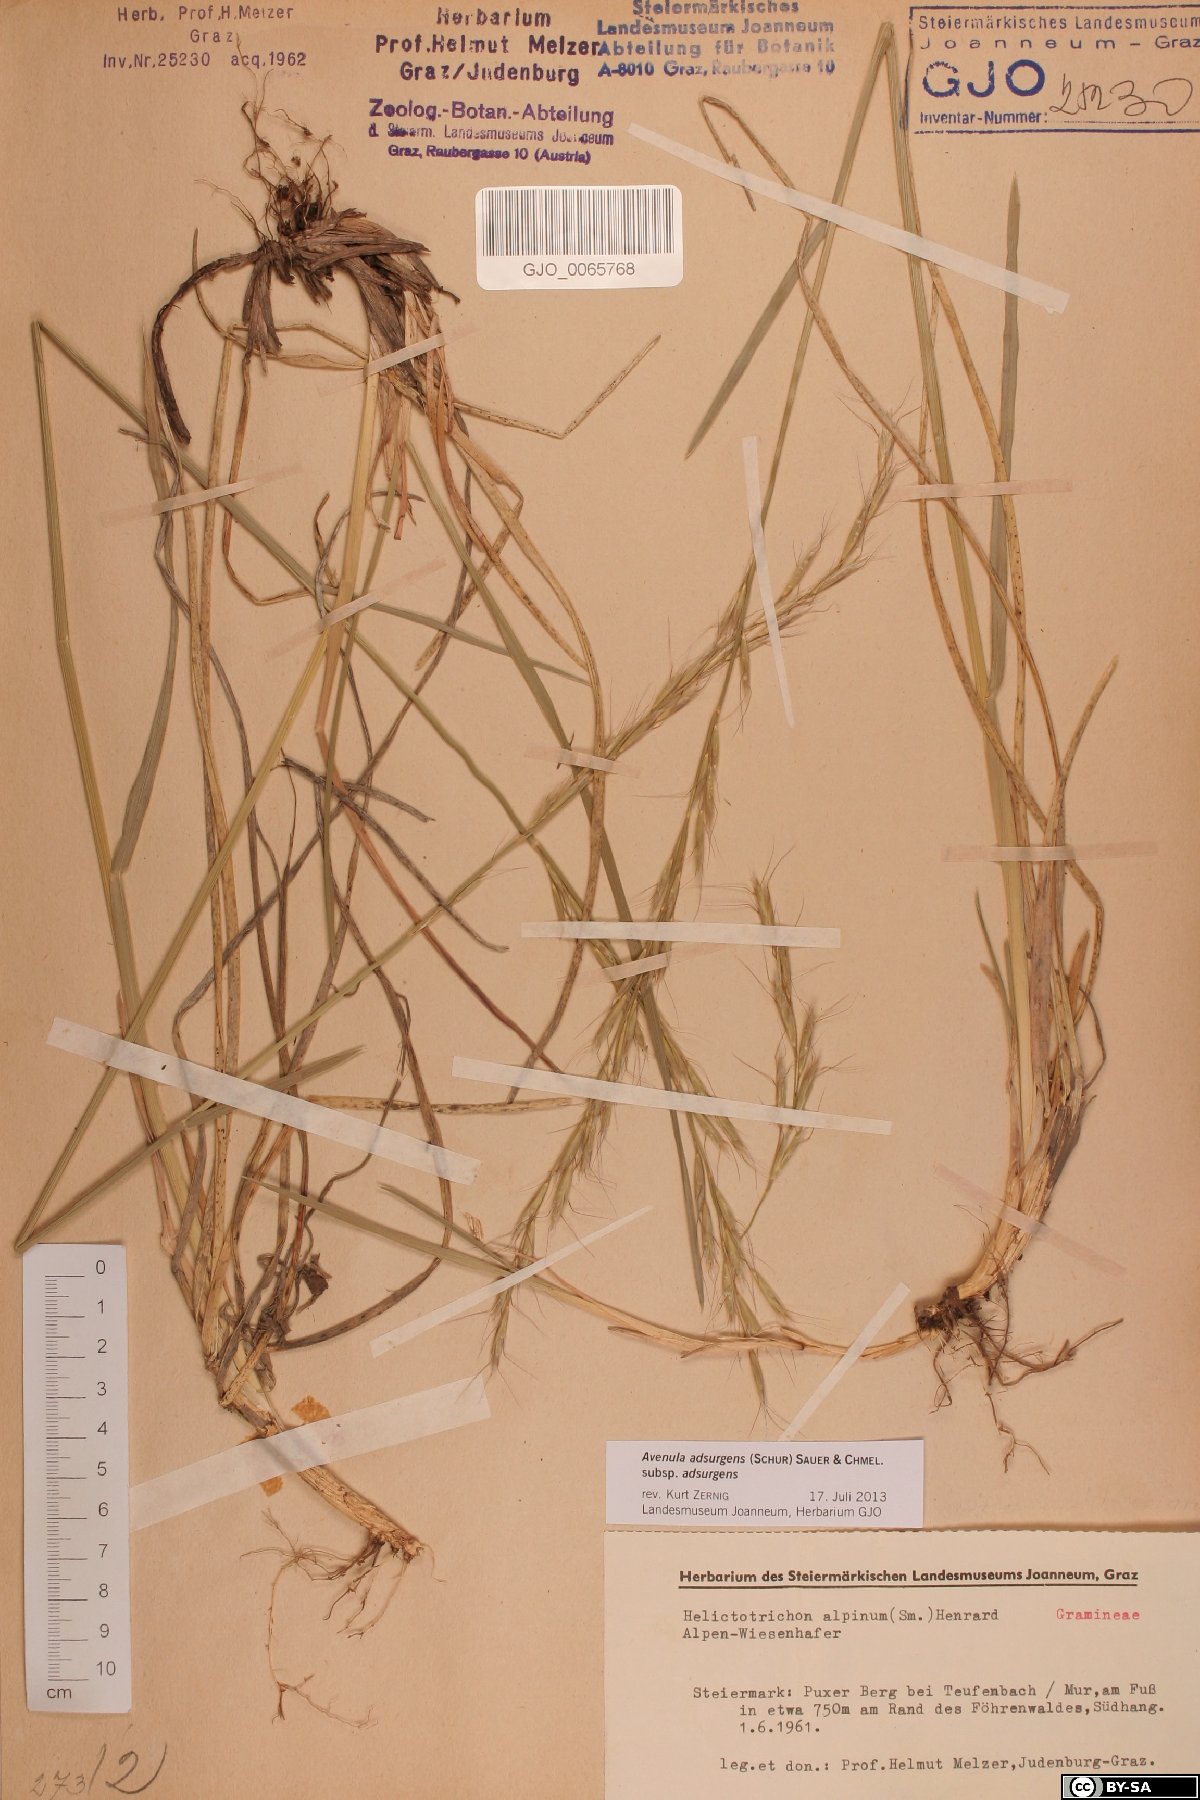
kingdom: Plantae
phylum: Tracheophyta
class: Liliopsida
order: Poales
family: Poaceae
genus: Helictochloa
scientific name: Helictochloa praeusta
